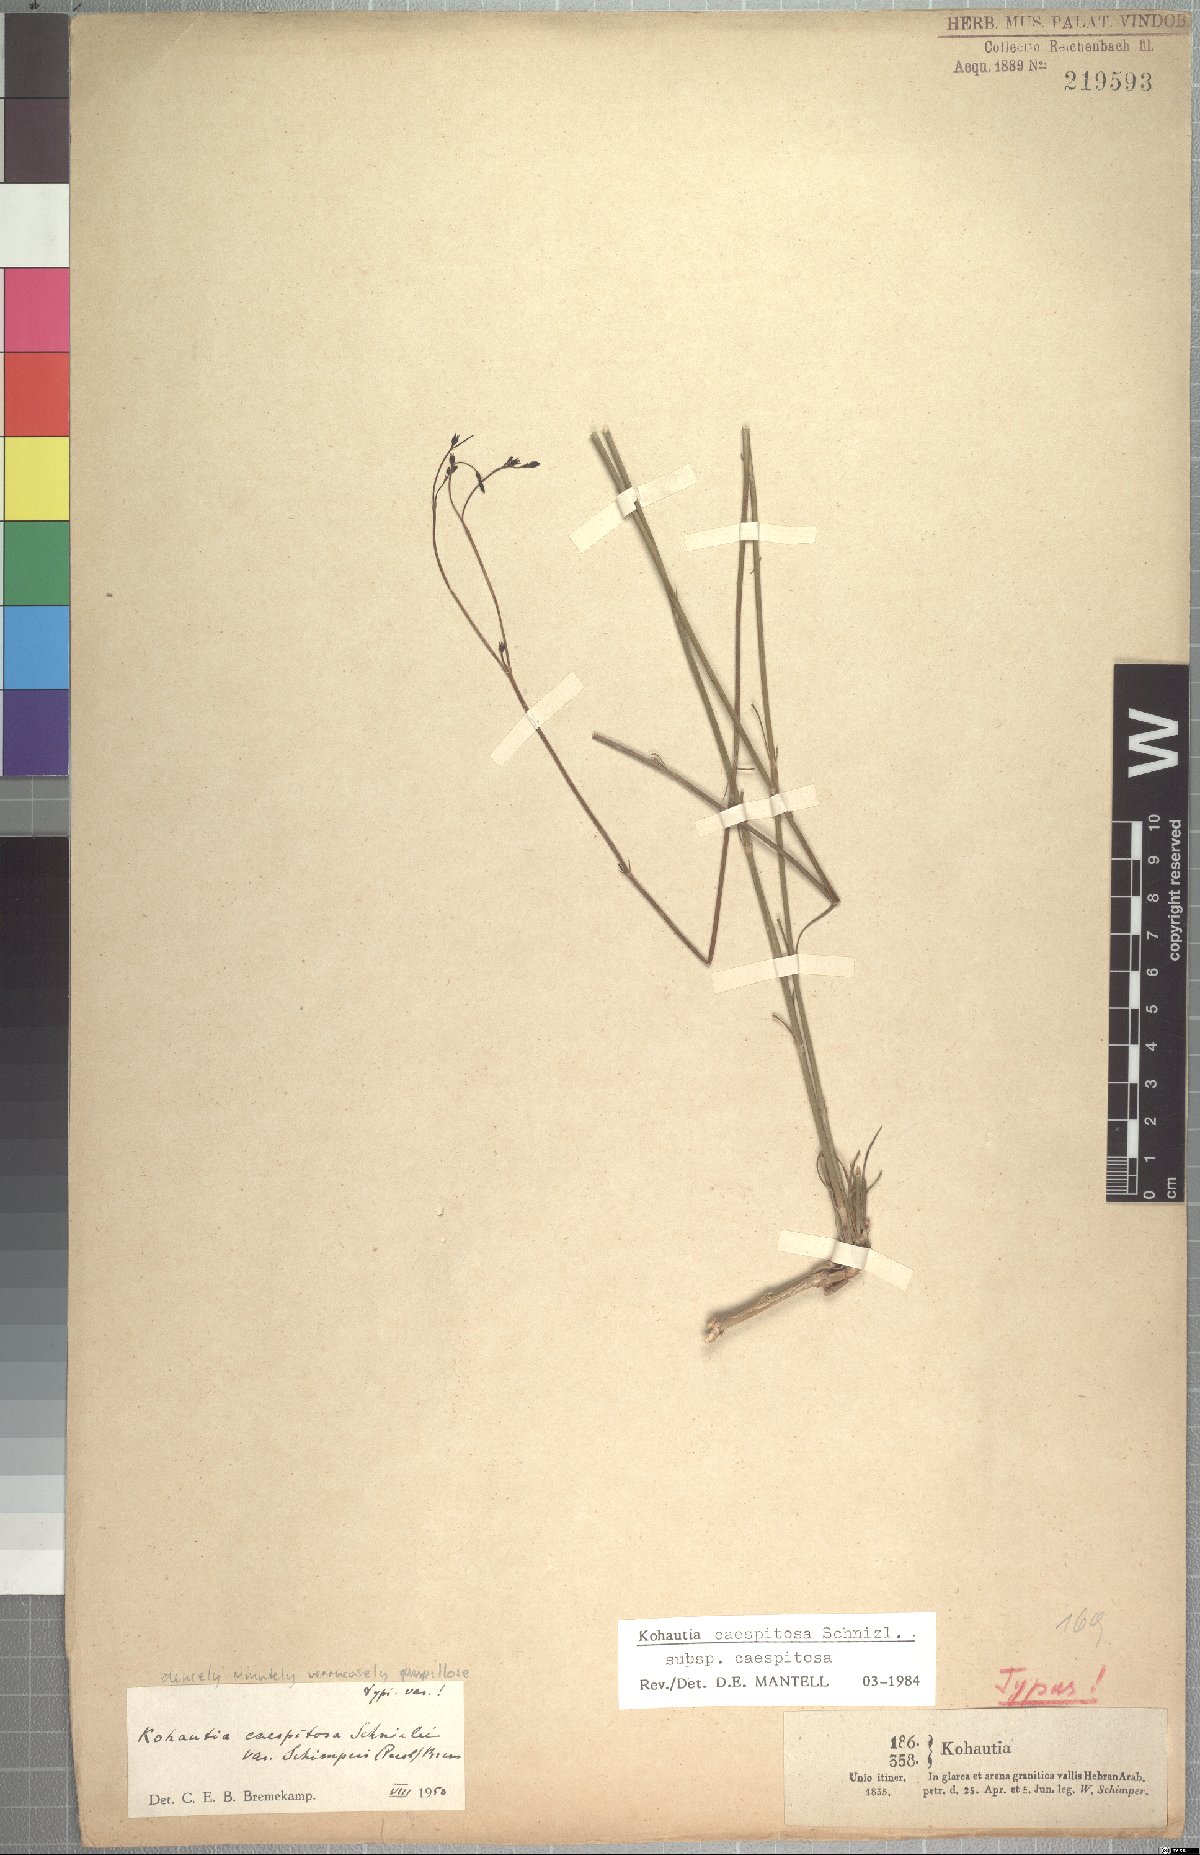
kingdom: Plantae
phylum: Tracheophyta
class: Magnoliopsida
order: Gentianales
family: Rubiaceae
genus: Kohautia
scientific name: Kohautia caespitosa
